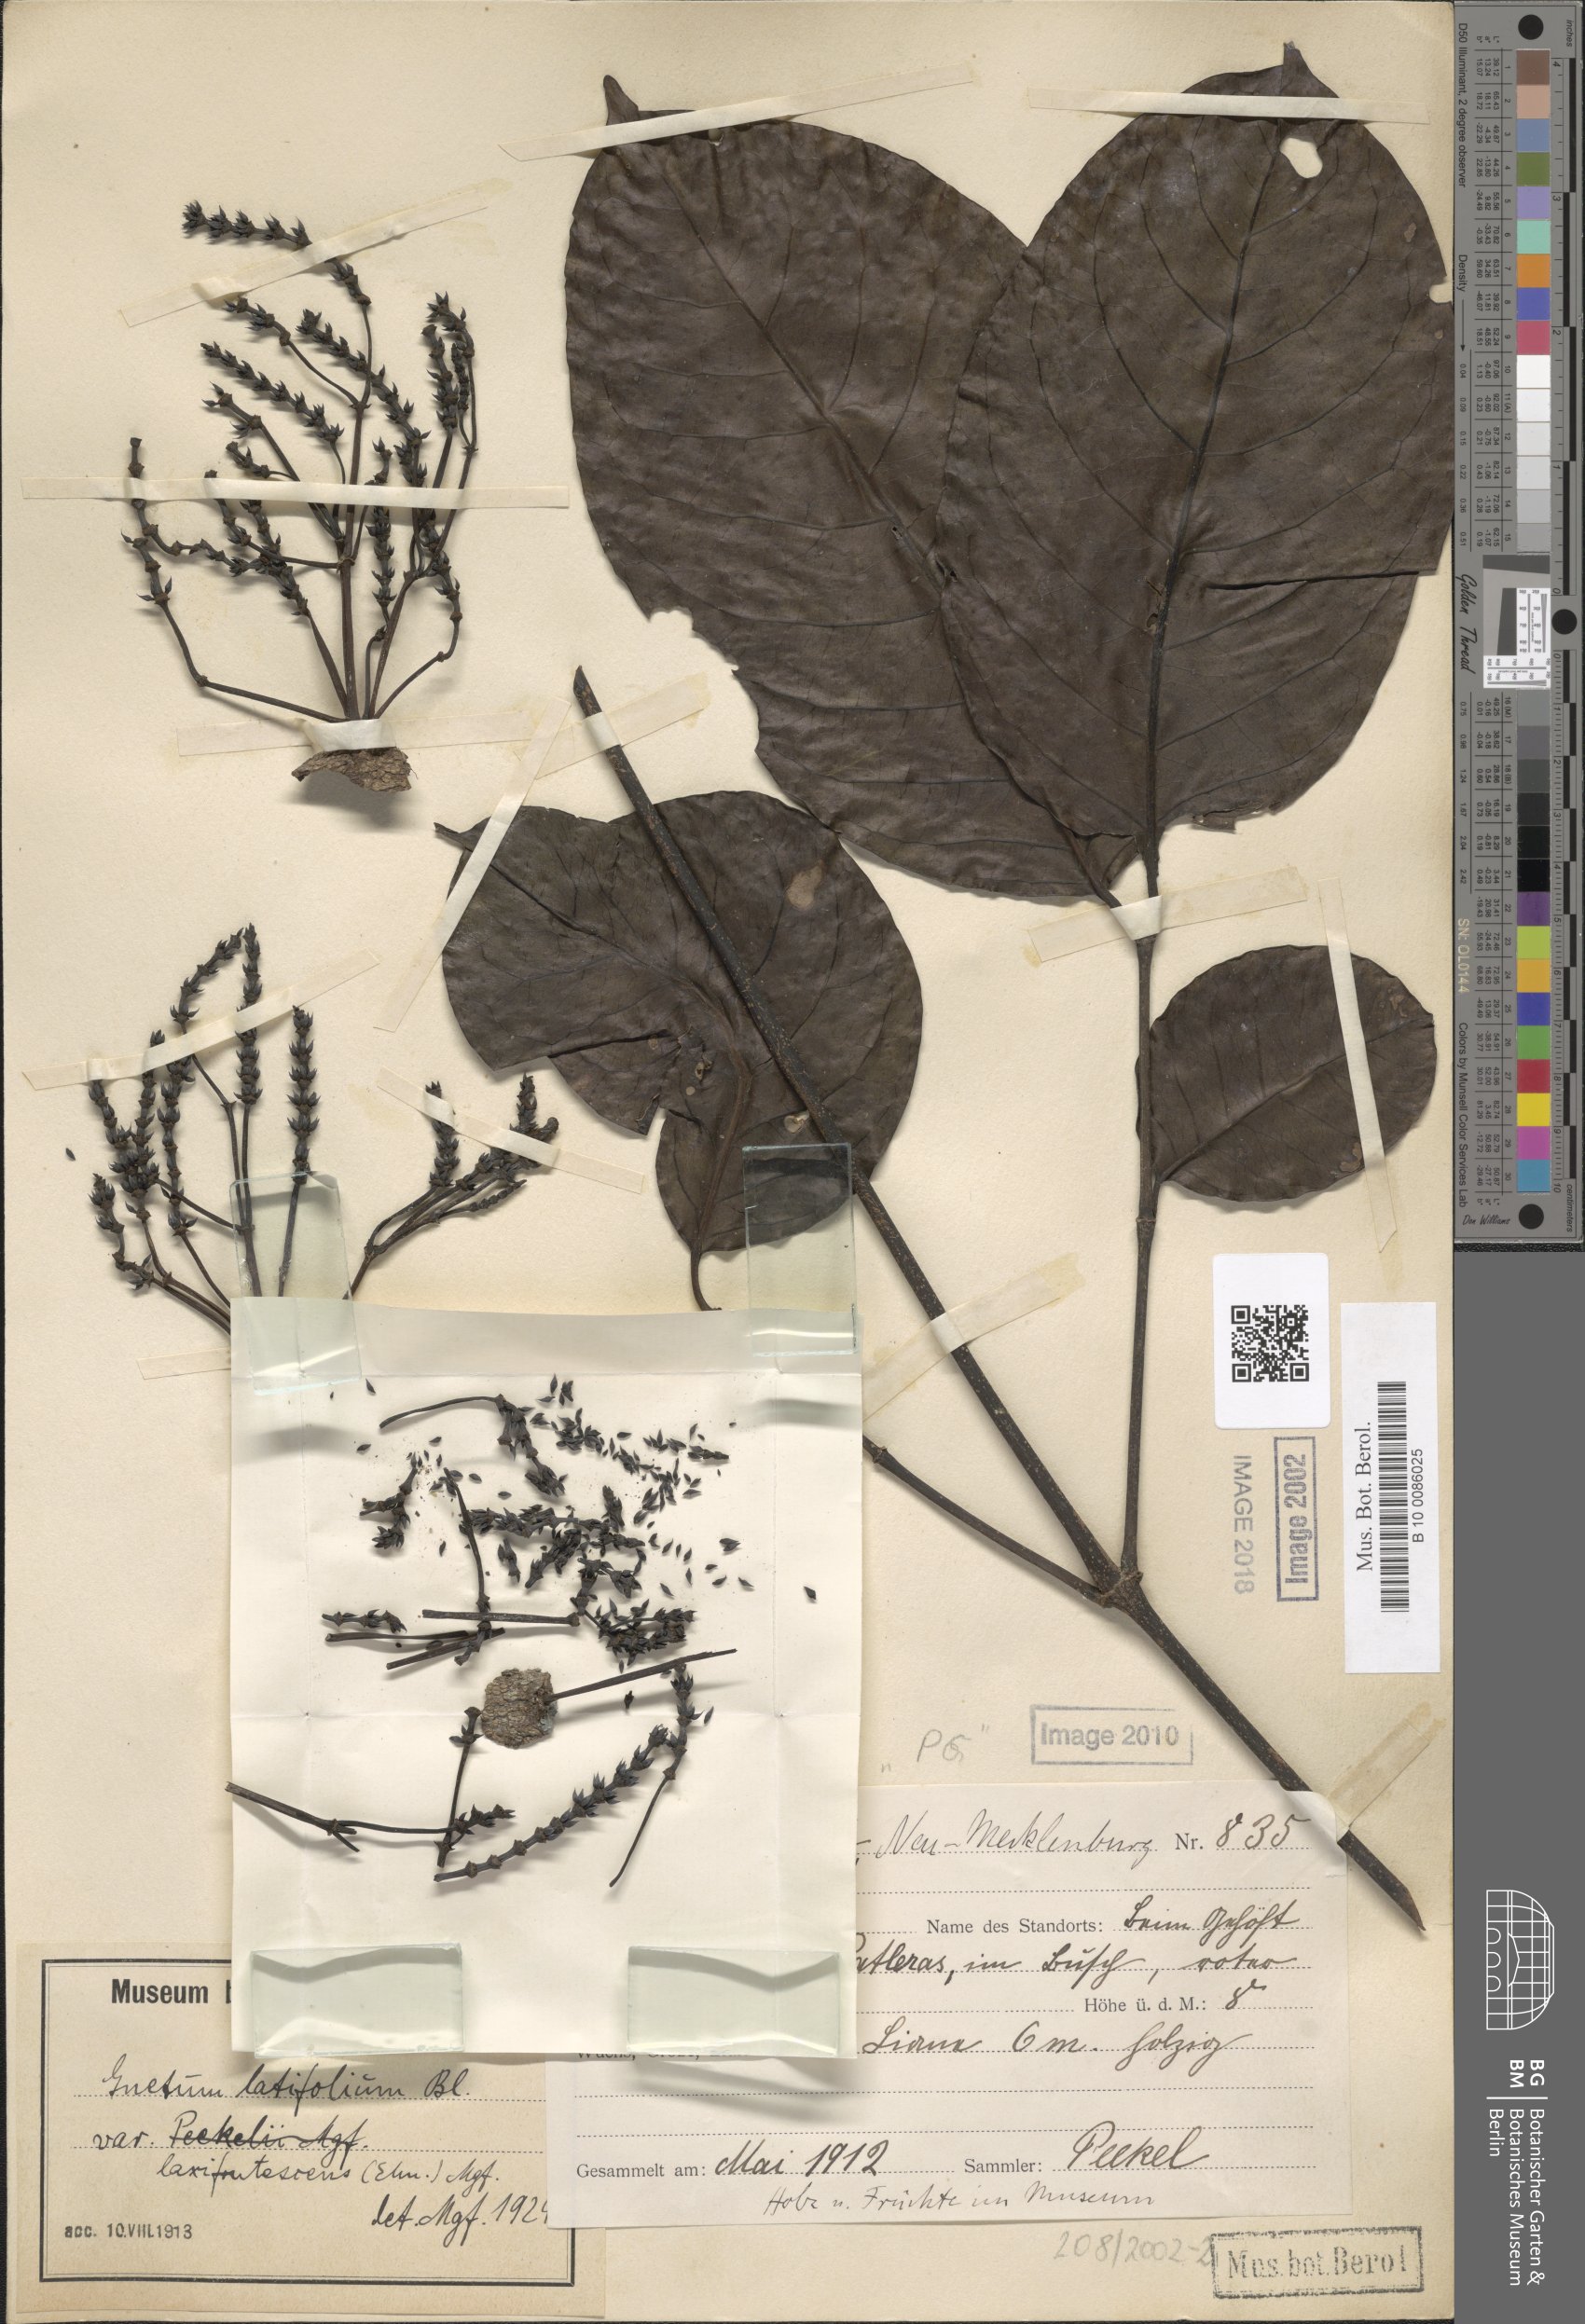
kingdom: Plantae
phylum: Tracheophyta
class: Gnetopsida
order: Gnetales
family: Gnetaceae
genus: Gnetum
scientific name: Gnetum latifolium
